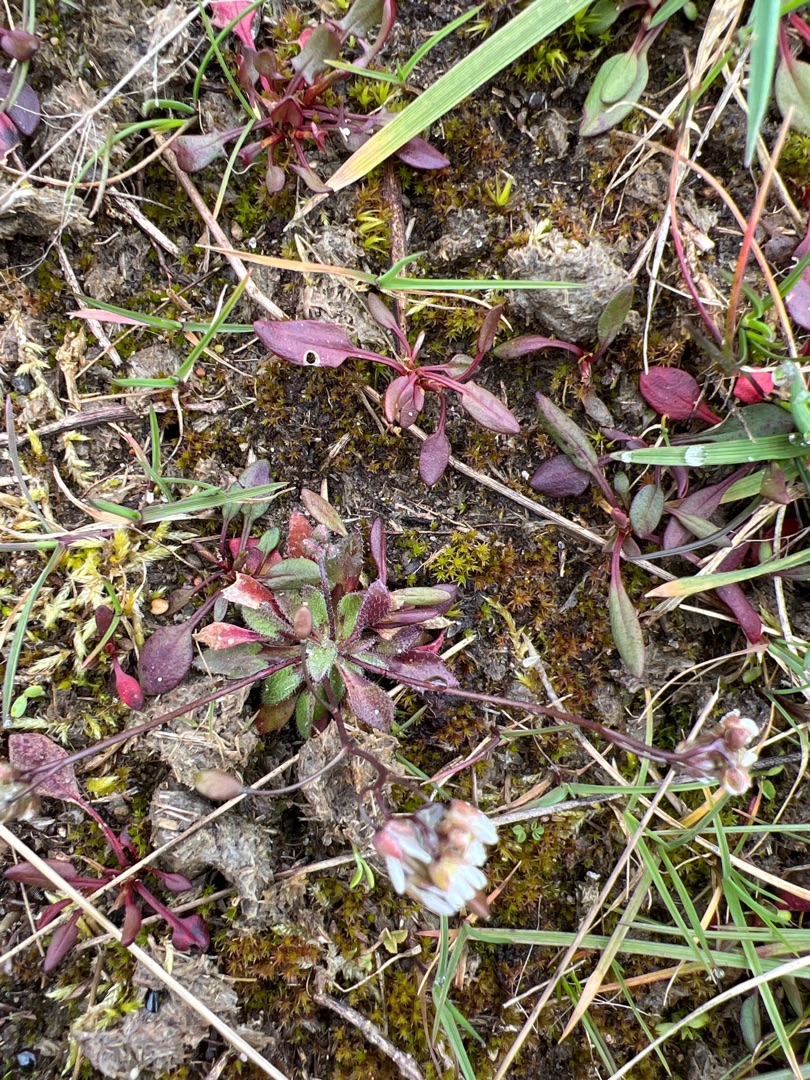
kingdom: Plantae
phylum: Tracheophyta
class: Magnoliopsida
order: Brassicales
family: Brassicaceae
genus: Draba
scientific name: Draba verna
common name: Vår-gæslingeblomst
